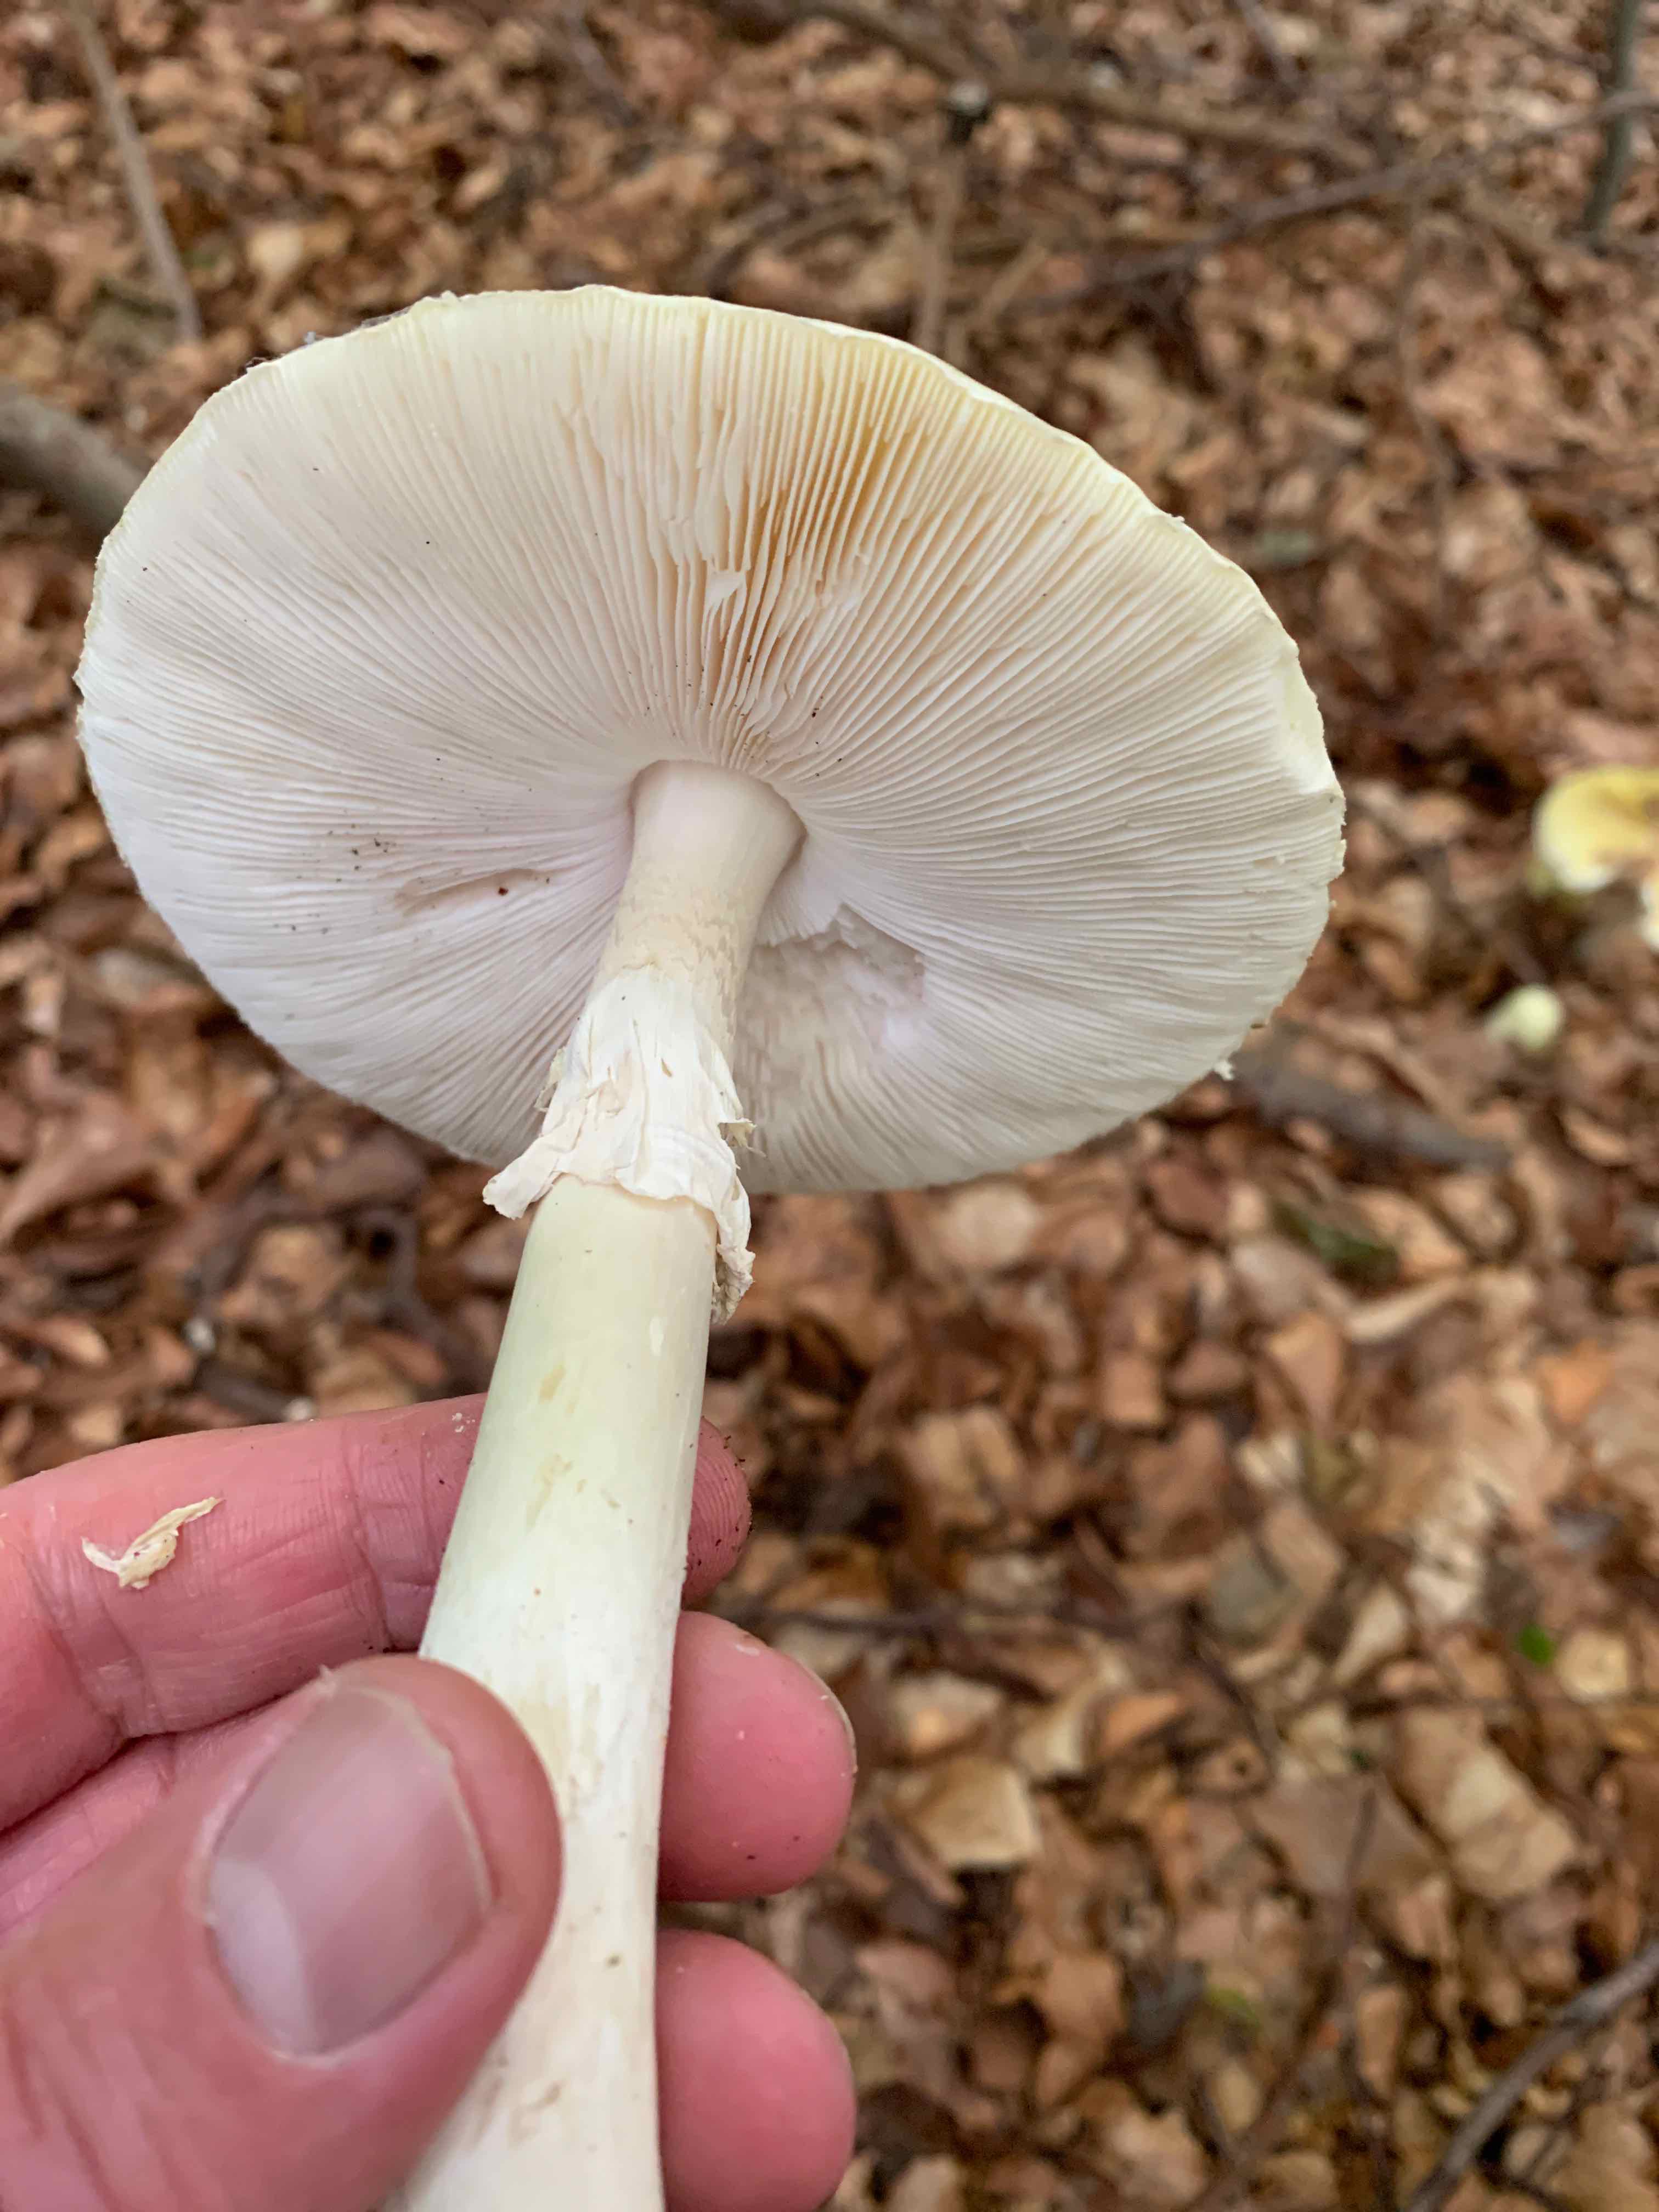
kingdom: Fungi
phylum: Basidiomycota
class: Agaricomycetes
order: Agaricales
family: Amanitaceae
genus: Amanita
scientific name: Amanita phalloides
